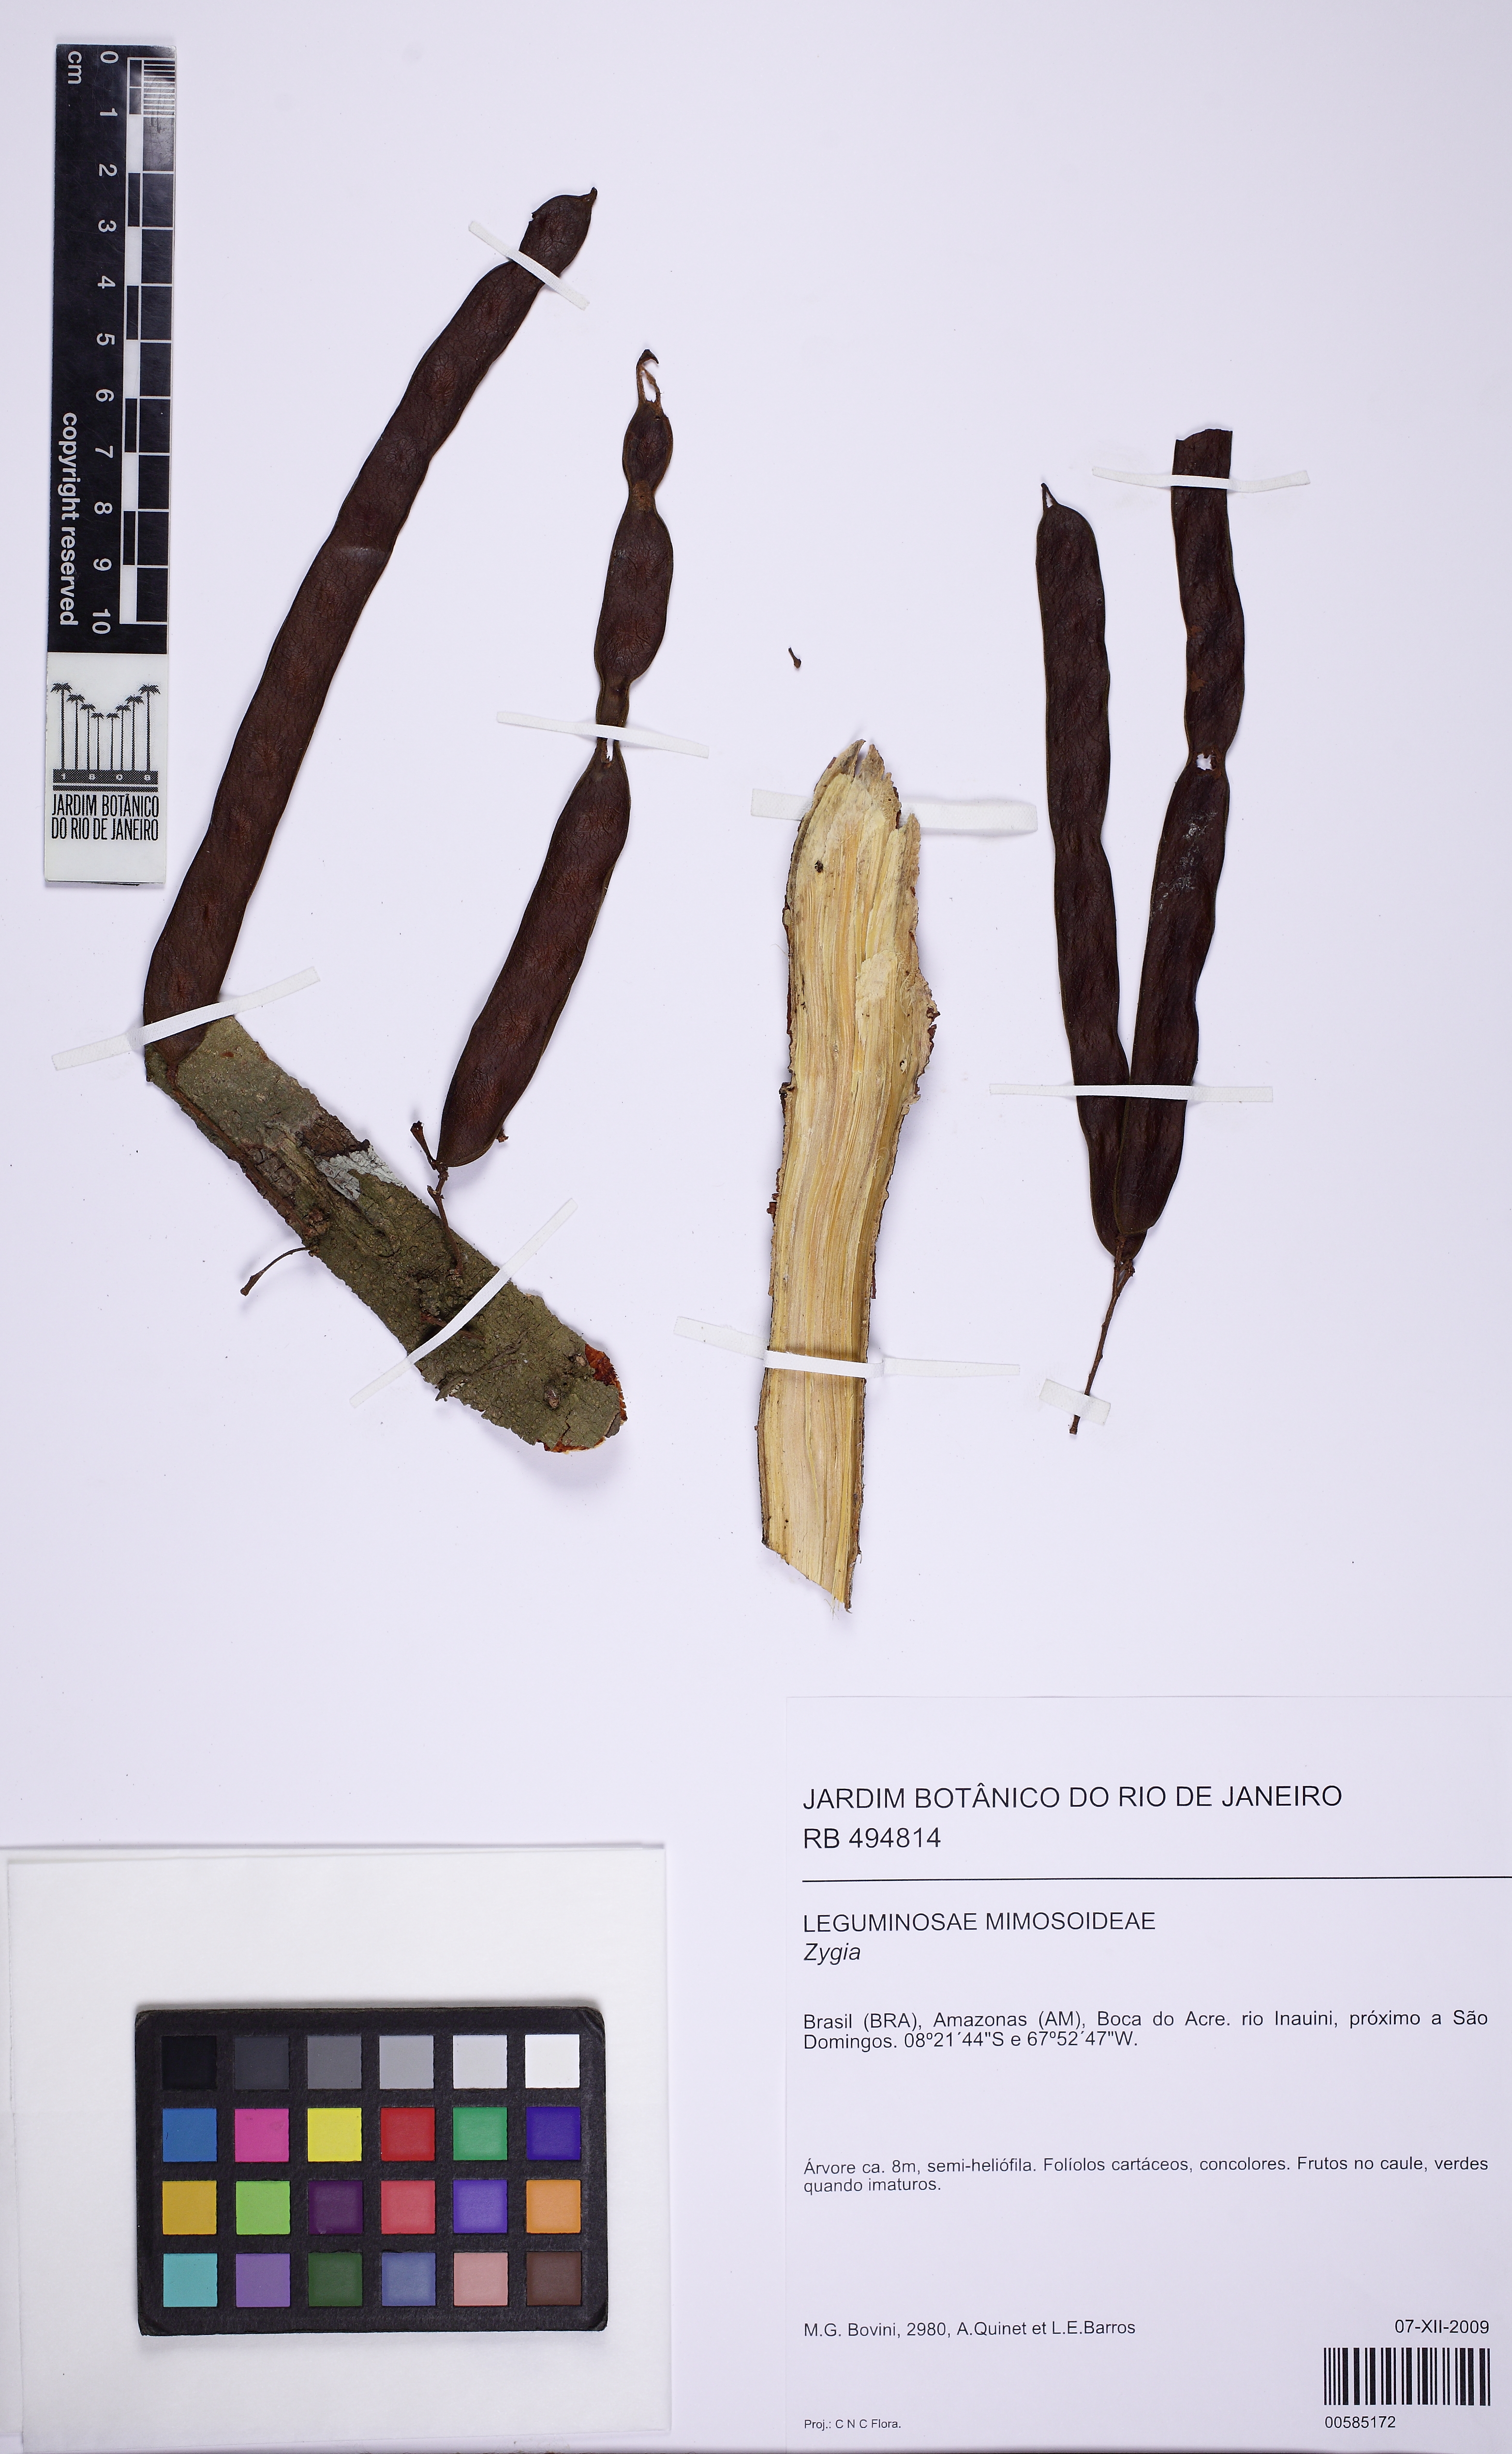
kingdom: Plantae
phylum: Tracheophyta
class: Magnoliopsida
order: Fabales
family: Fabaceae
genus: Zygia
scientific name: Zygia claviflora
